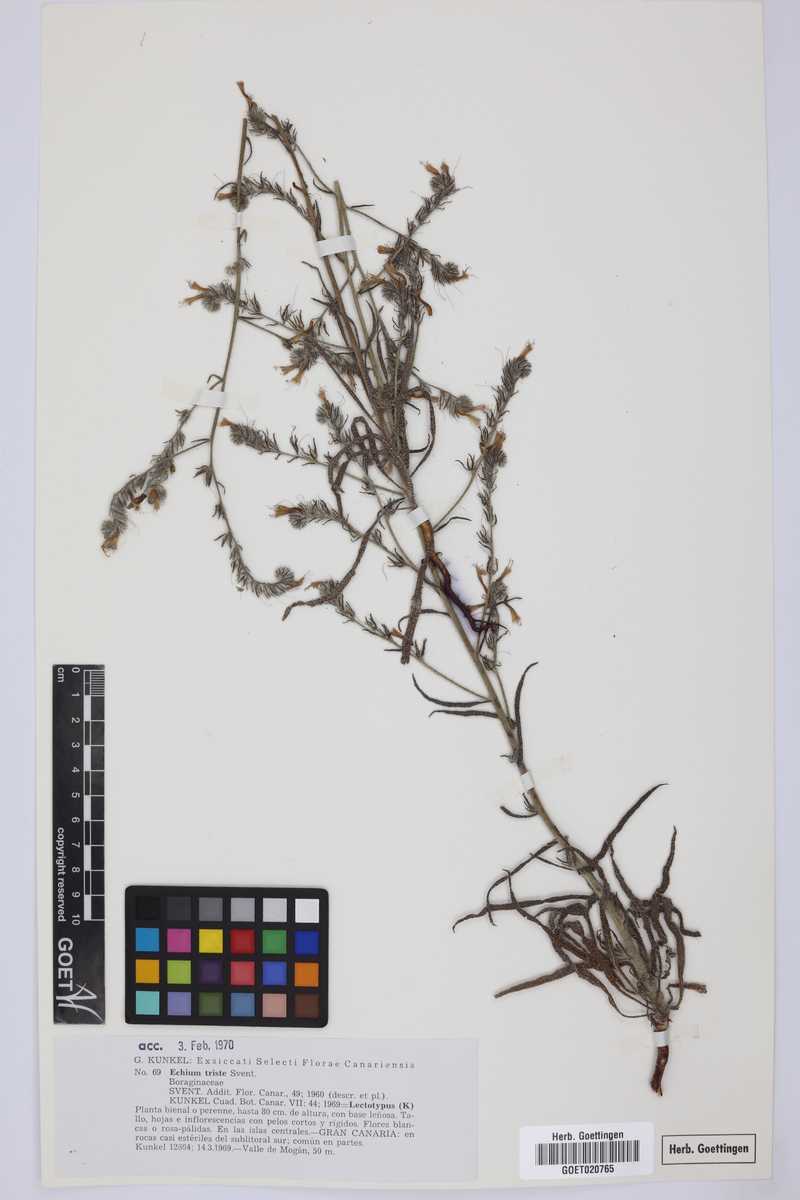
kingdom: Plantae
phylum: Tracheophyta
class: Magnoliopsida
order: Boraginales
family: Boraginaceae
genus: Echium
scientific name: Echium triste
